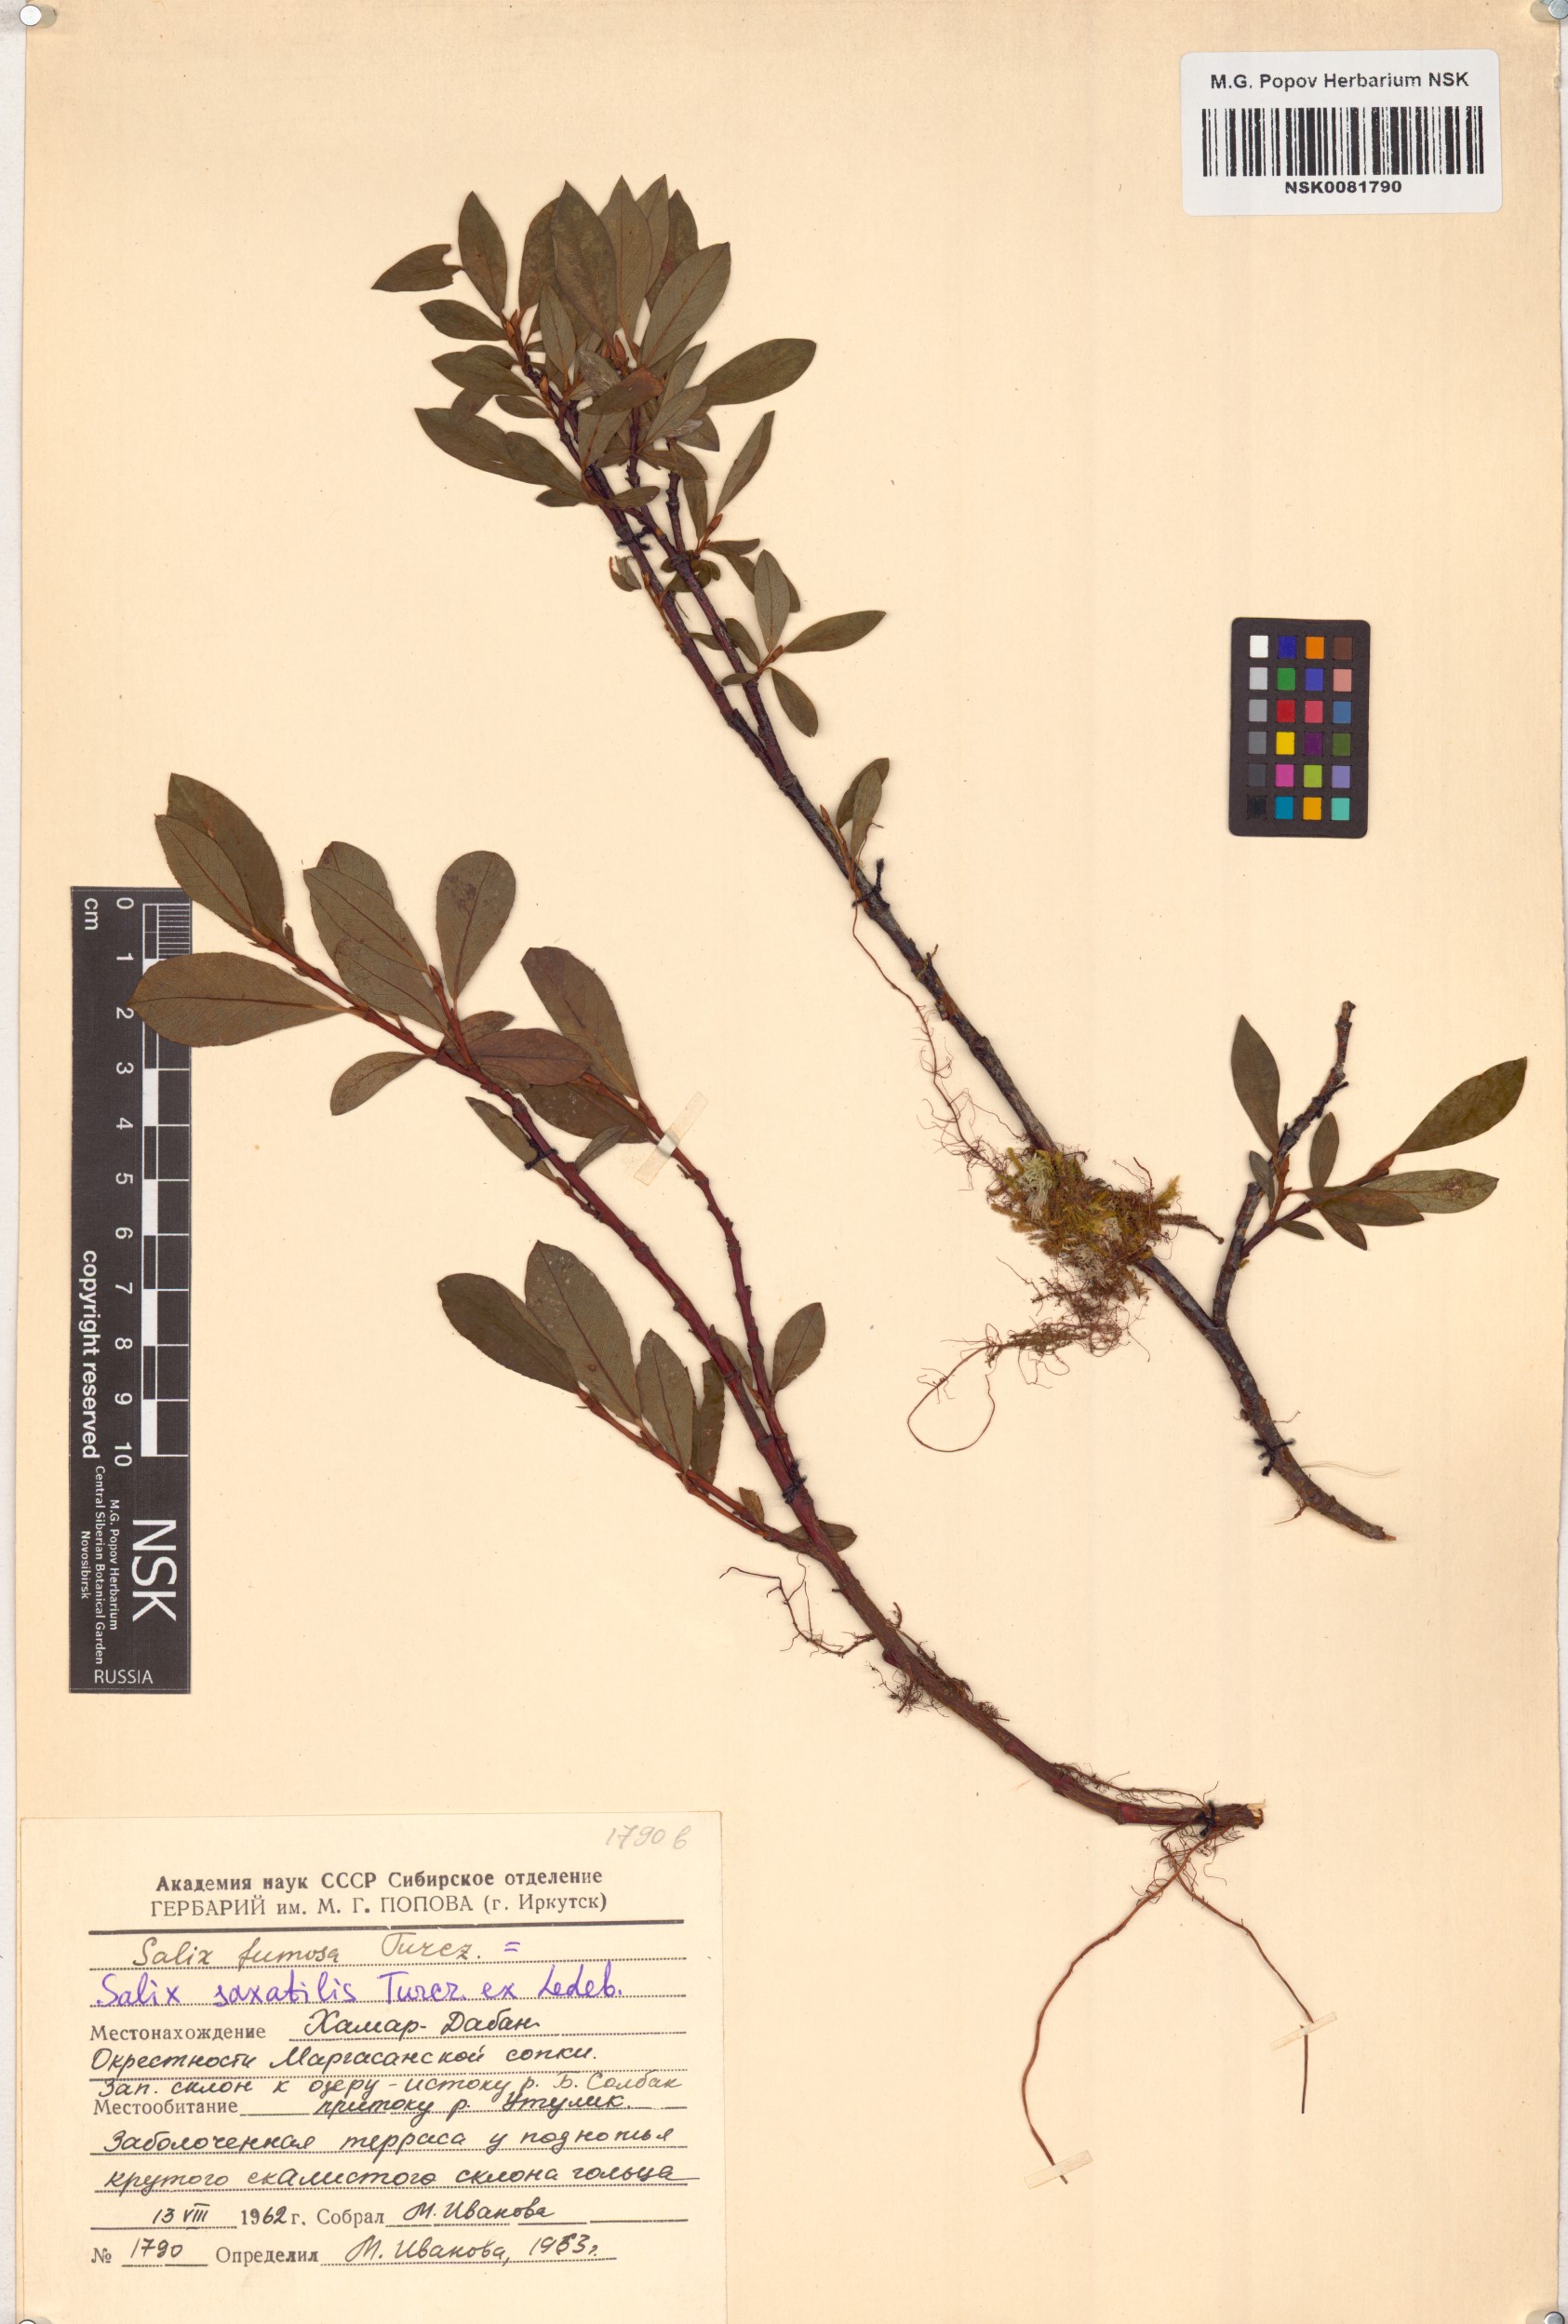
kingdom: Plantae
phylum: Tracheophyta
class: Magnoliopsida
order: Malpighiales
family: Salicaceae
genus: Salix
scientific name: Salix saxatilis
